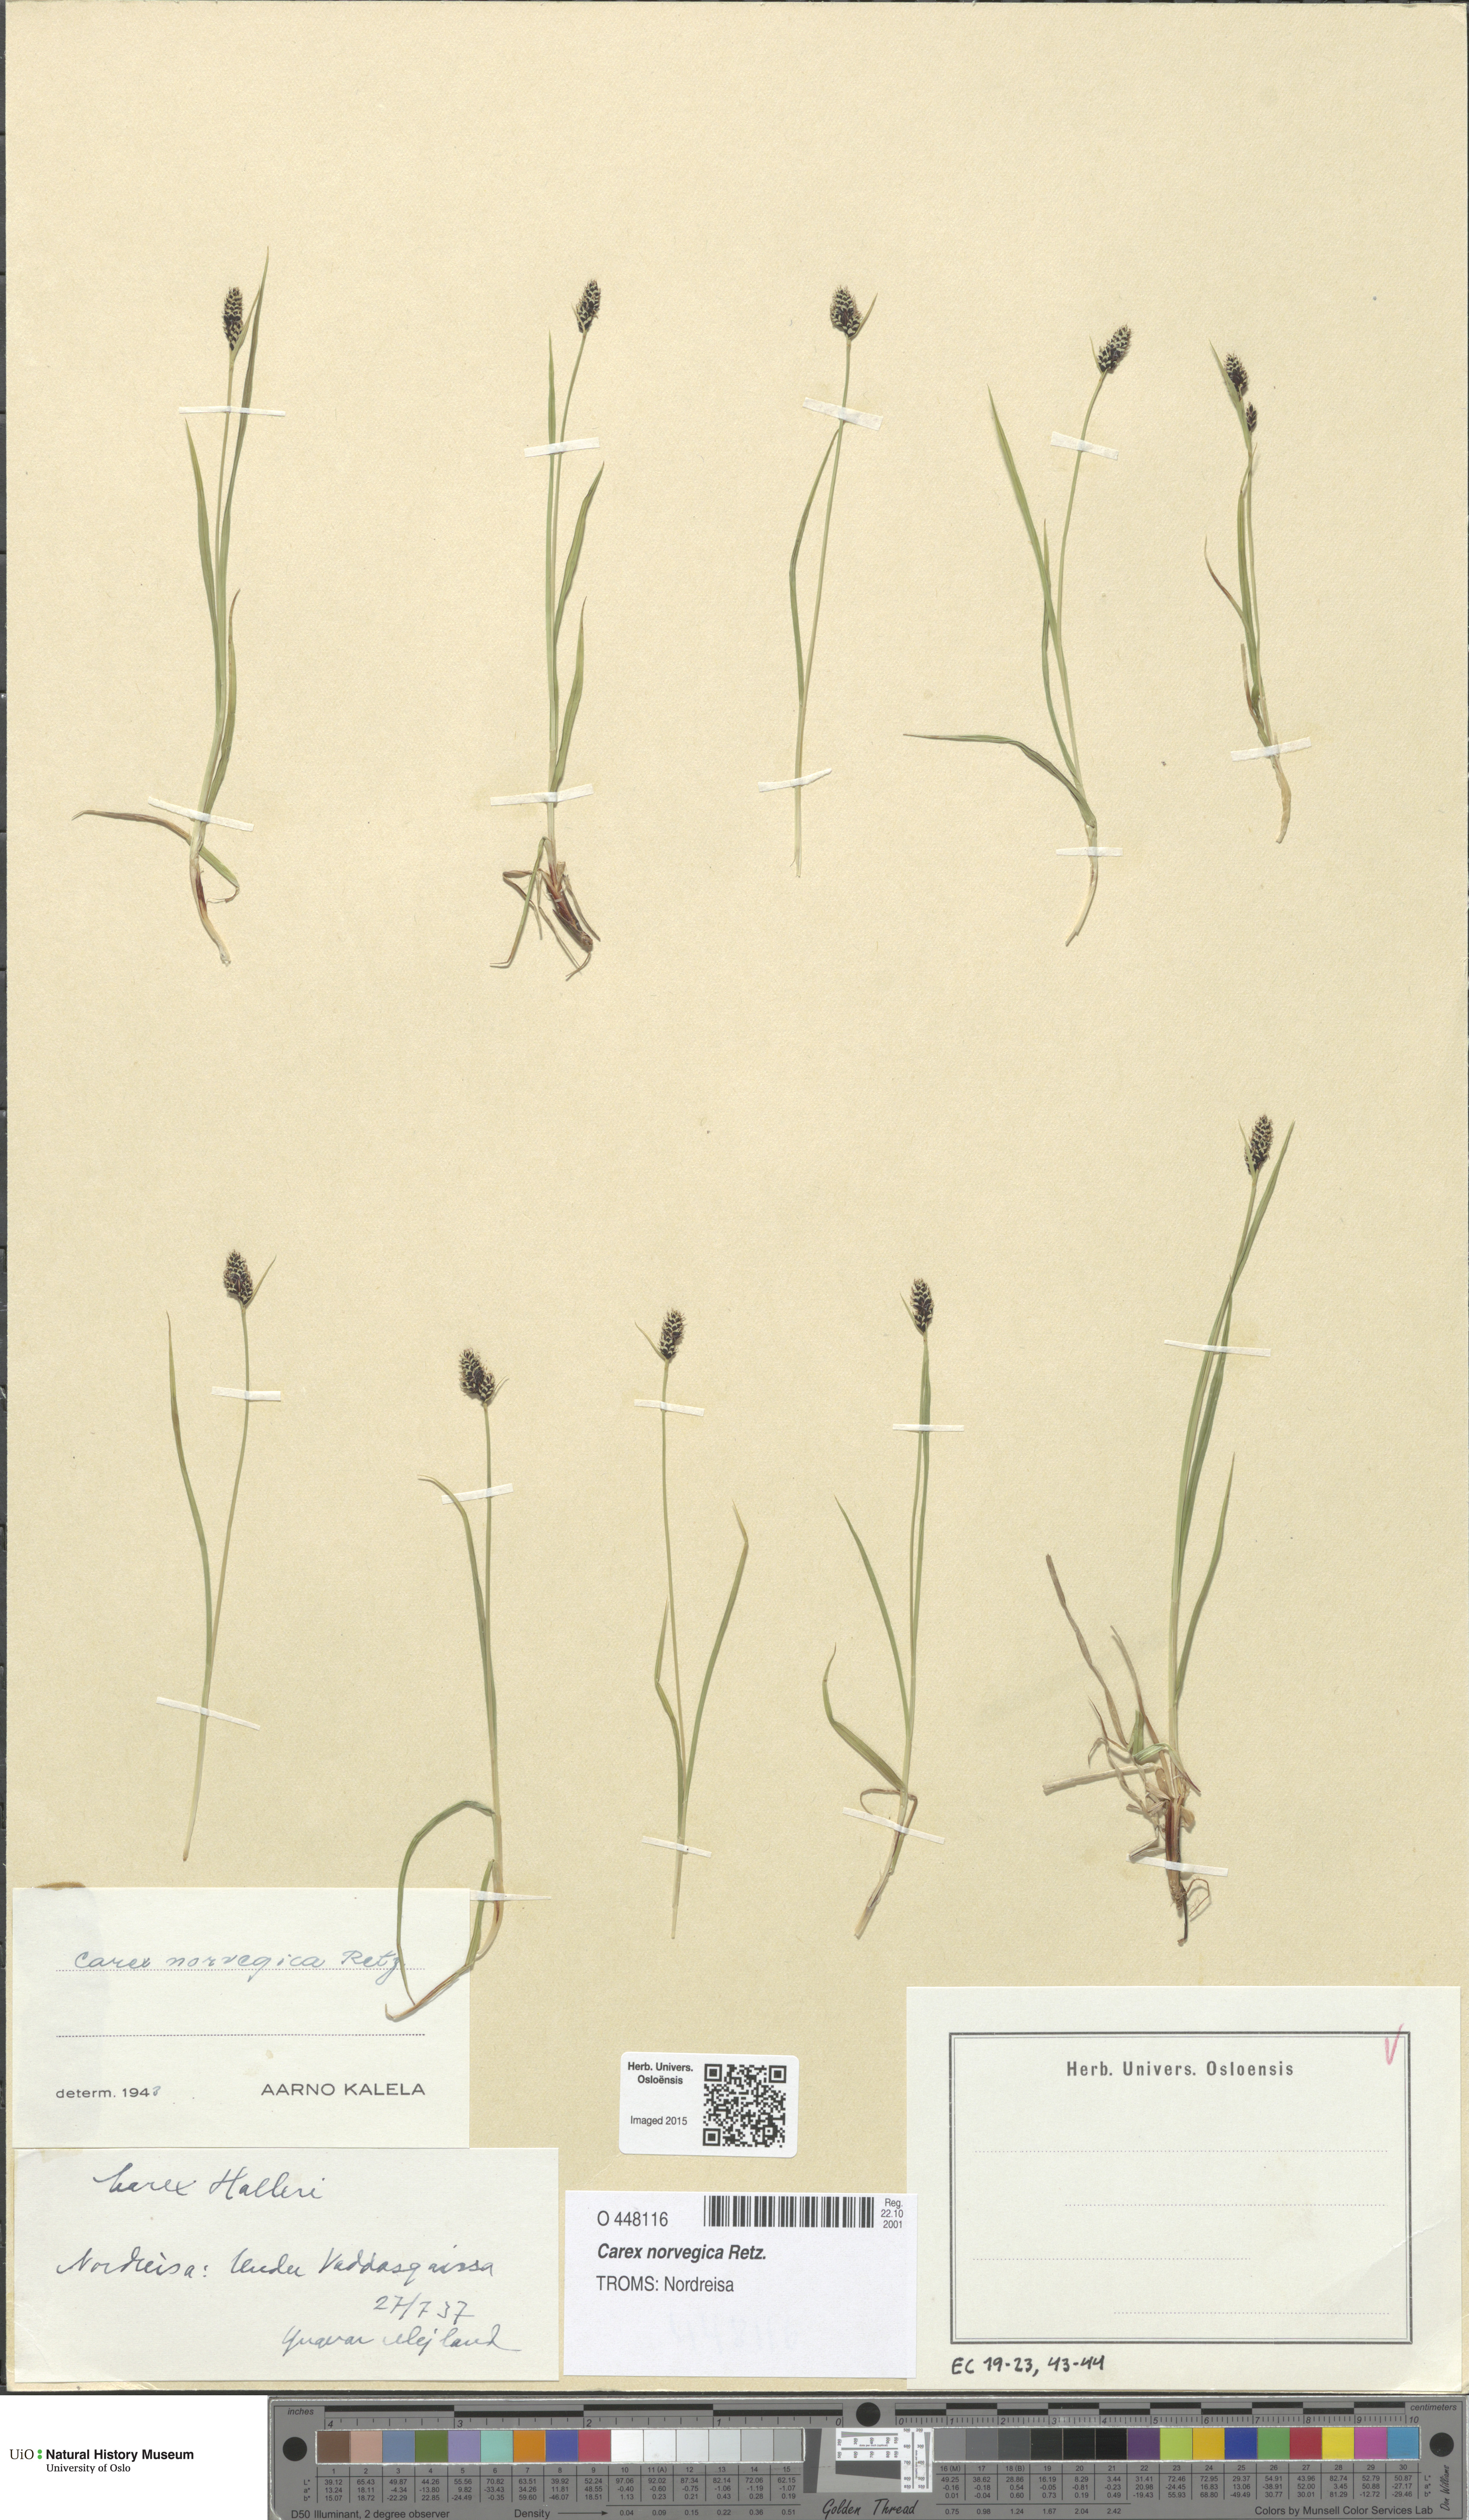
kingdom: Plantae
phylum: Tracheophyta
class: Liliopsida
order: Poales
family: Cyperaceae
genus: Carex
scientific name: Carex norvegica
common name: Close-headed alpine-sedge
